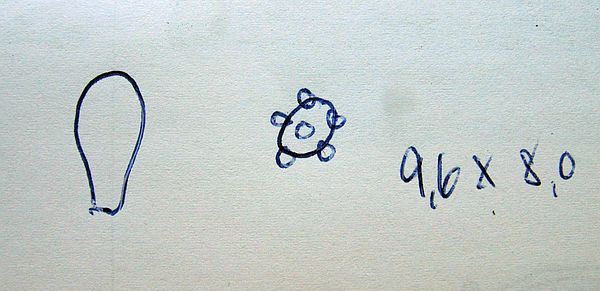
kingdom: Fungi
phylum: Basidiomycota
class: Agaricomycetes
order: Agaricales
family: Inocybaceae
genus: Inocybe
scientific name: Inocybe lanuginosa
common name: uldskællet trævlhat
